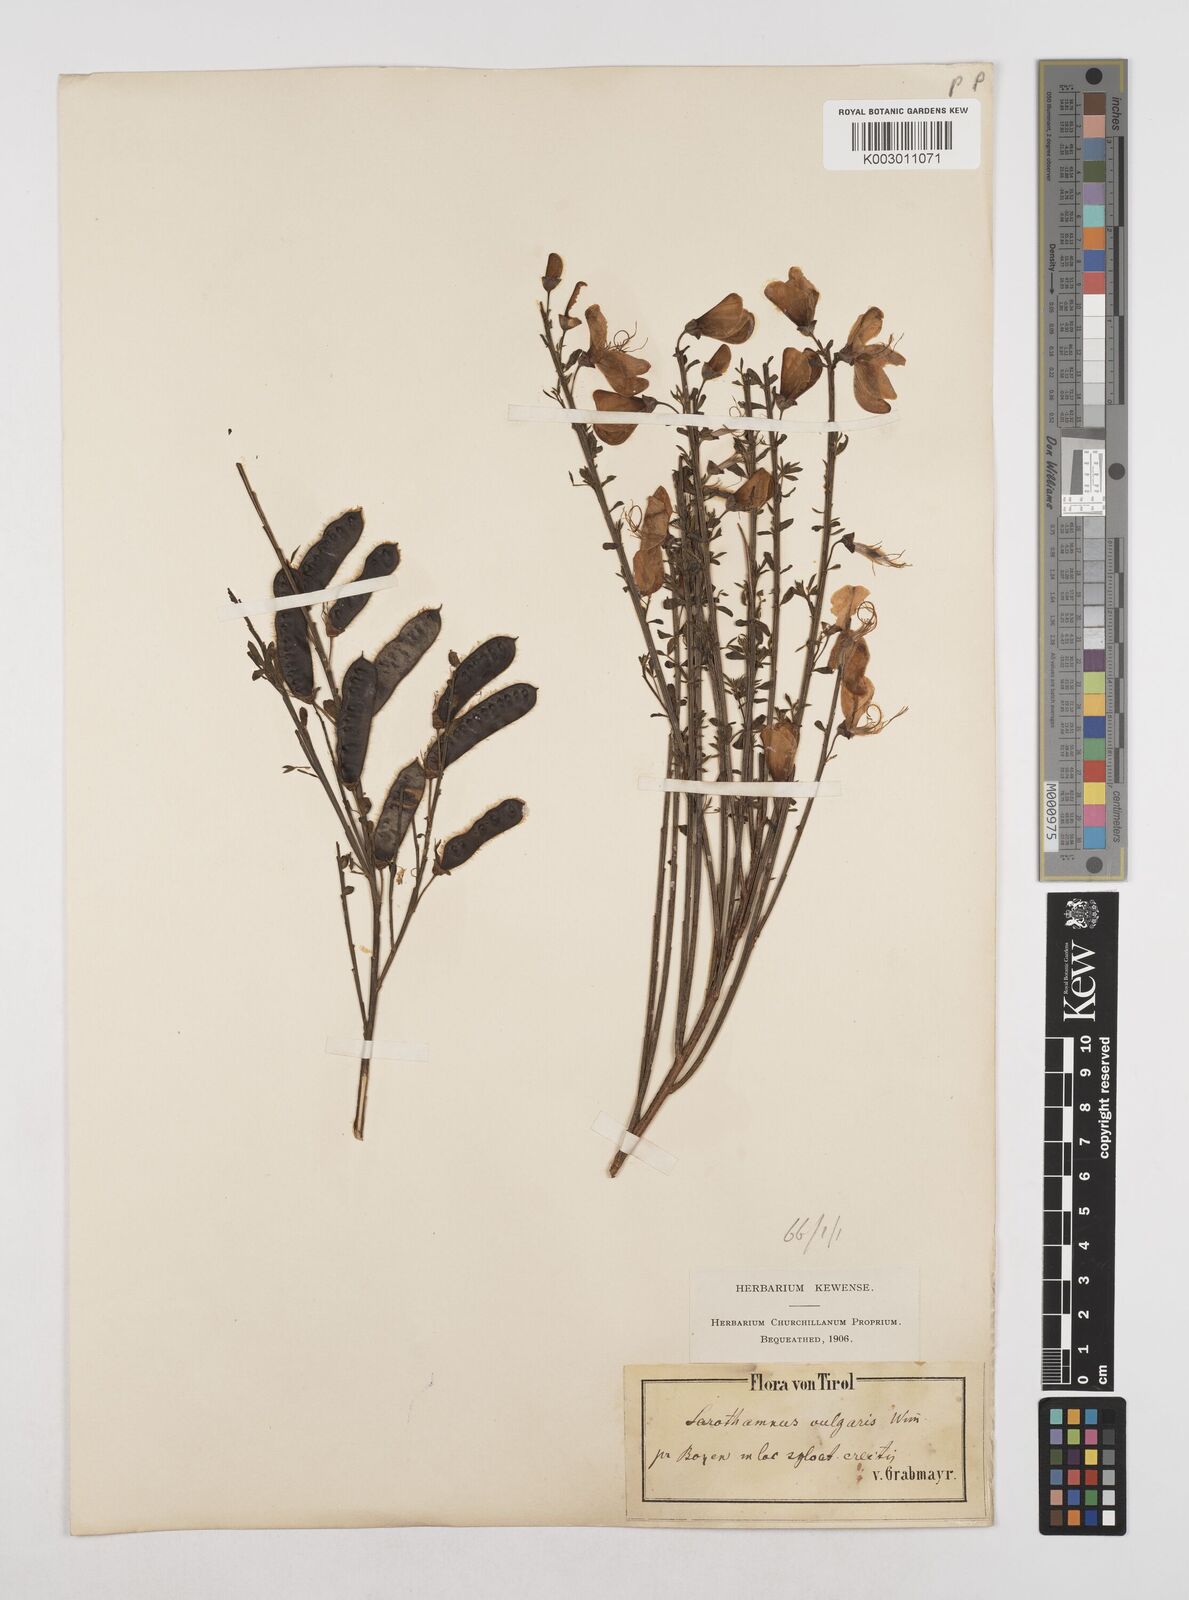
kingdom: Plantae
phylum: Tracheophyta
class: Magnoliopsida
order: Fabales
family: Fabaceae
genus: Cytisus
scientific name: Cytisus scoparius
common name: Scotch broom
